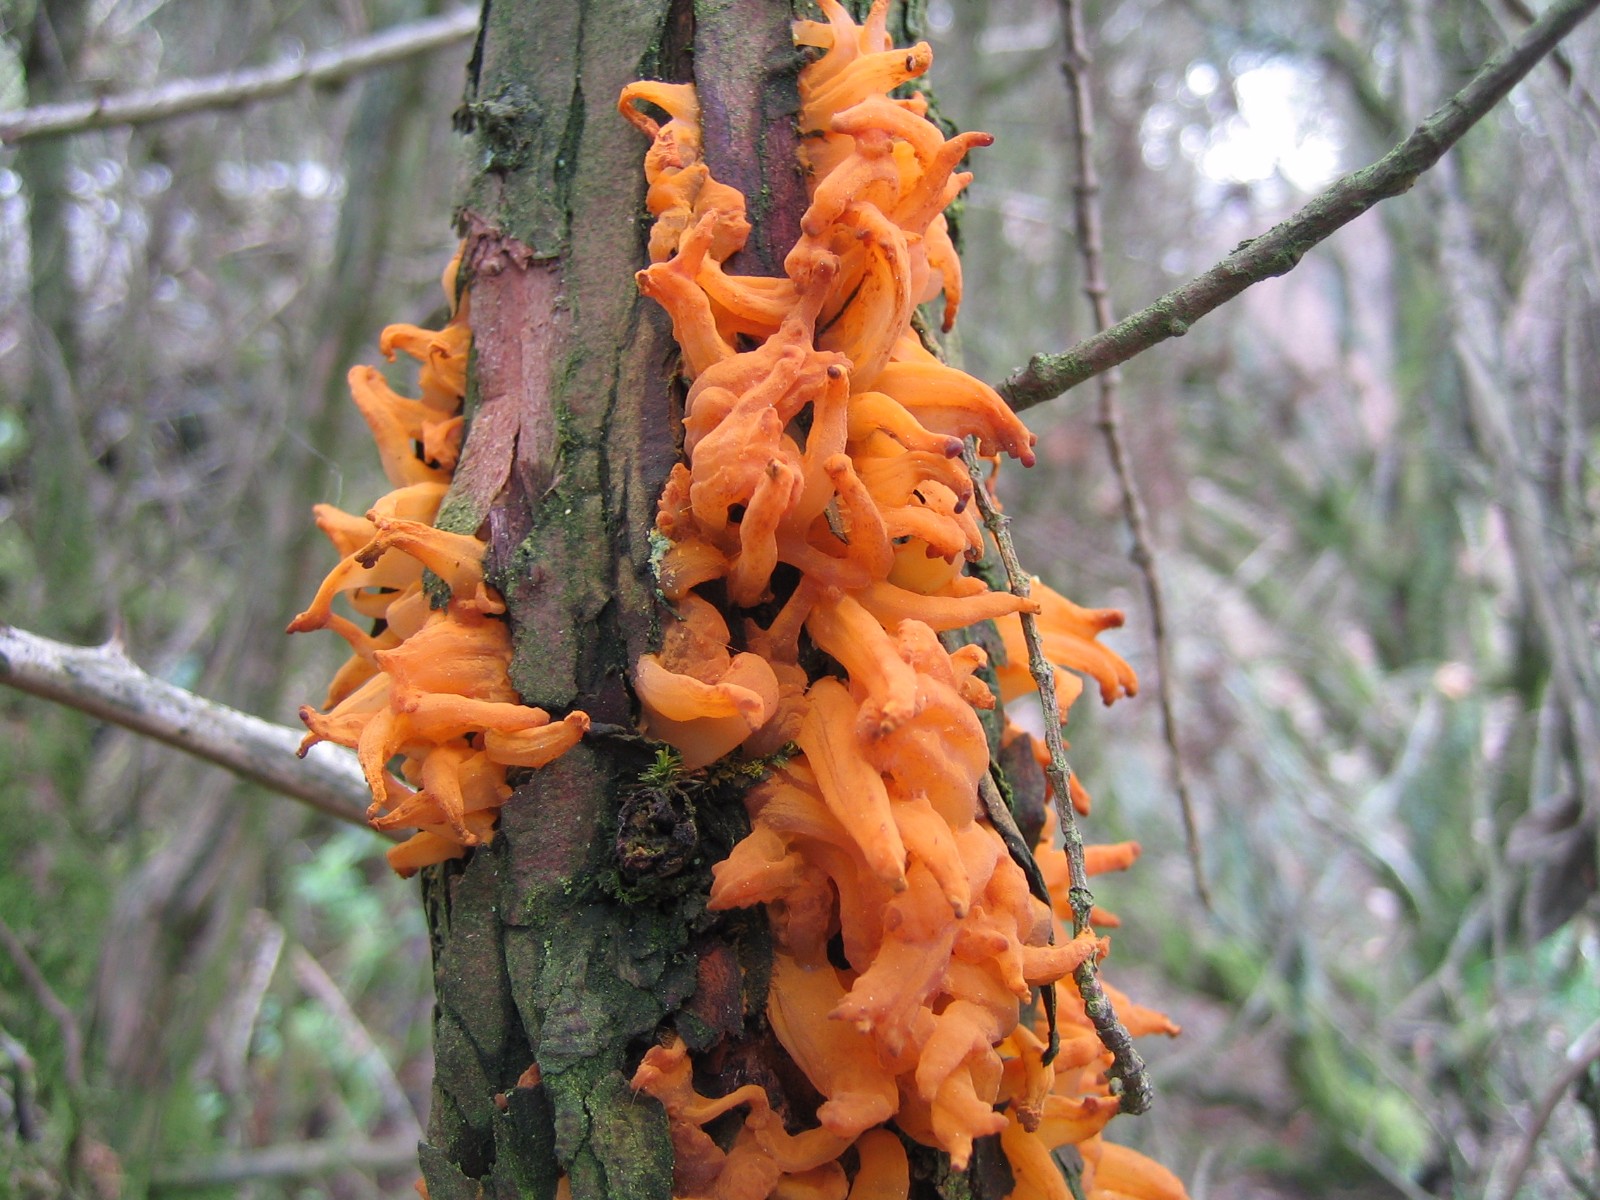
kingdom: Fungi
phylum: Basidiomycota
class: Pucciniomycetes
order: Pucciniales
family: Gymnosporangiaceae
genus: Gymnosporangium
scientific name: Gymnosporangium clavariiforme
